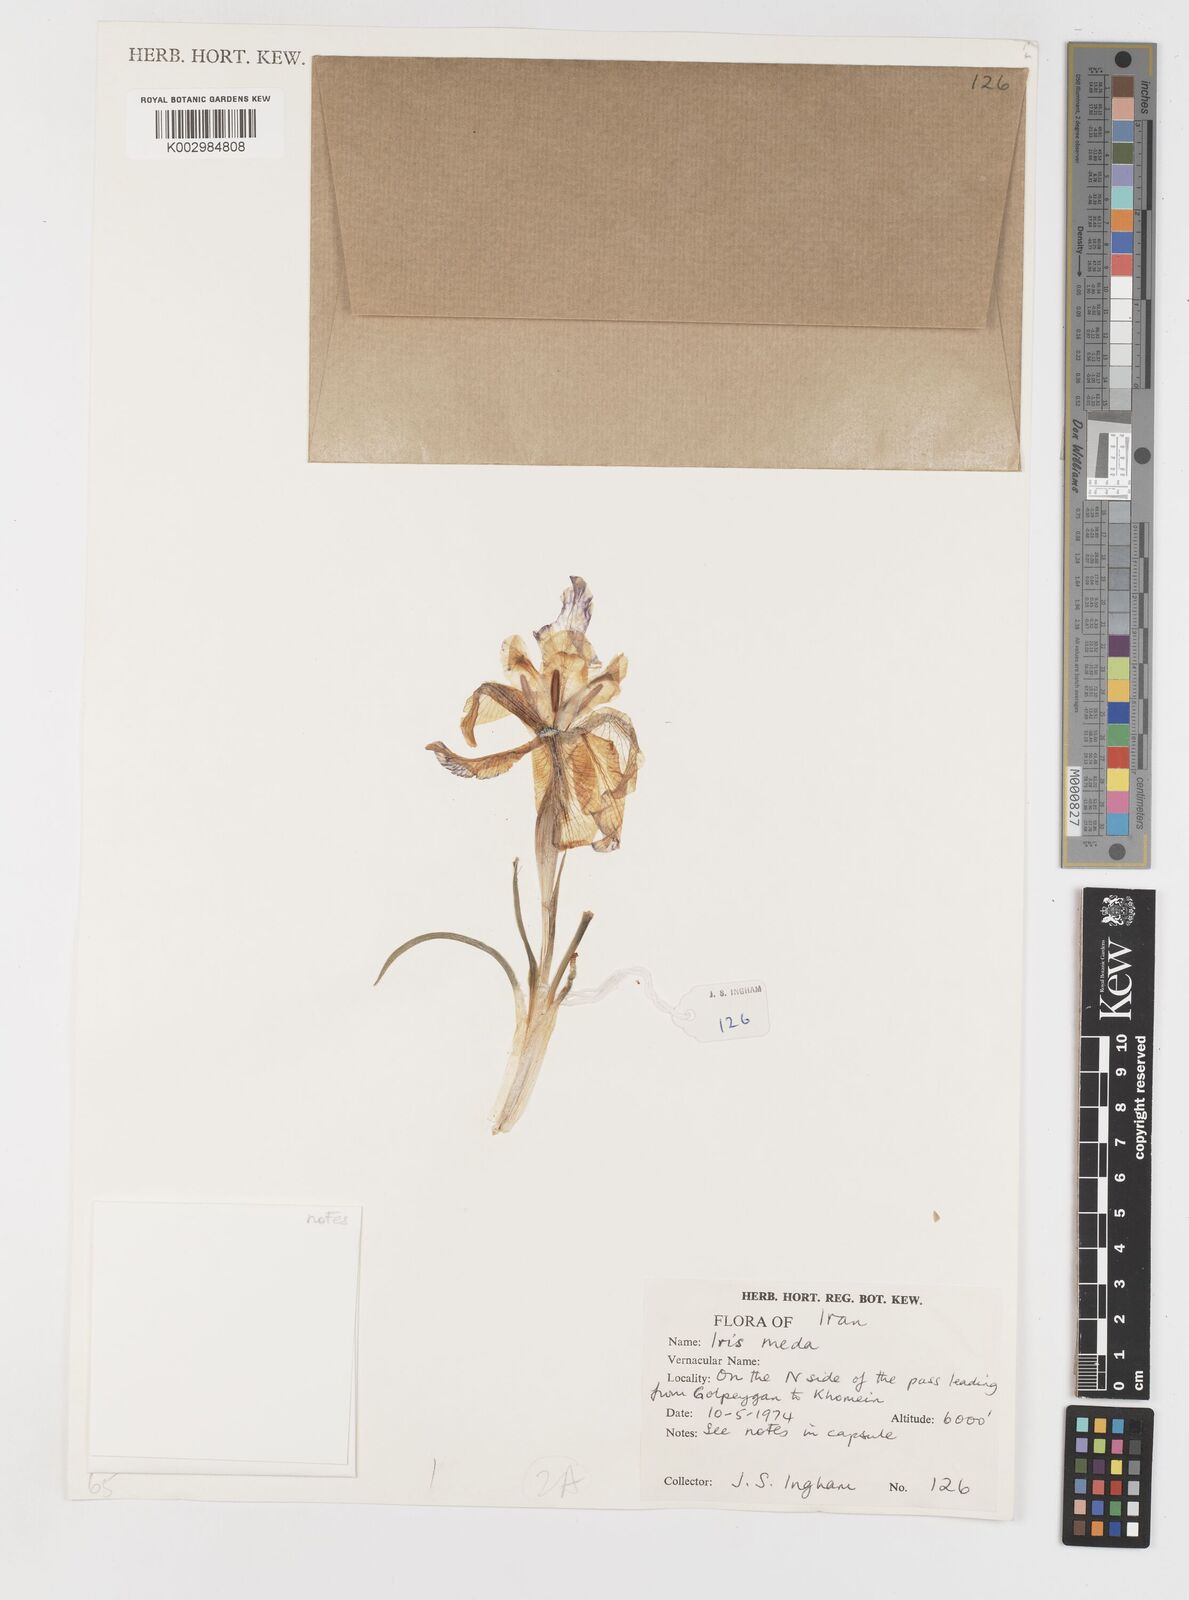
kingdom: Plantae
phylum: Tracheophyta
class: Liliopsida
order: Asparagales
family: Iridaceae
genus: Iris
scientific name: Iris meda
